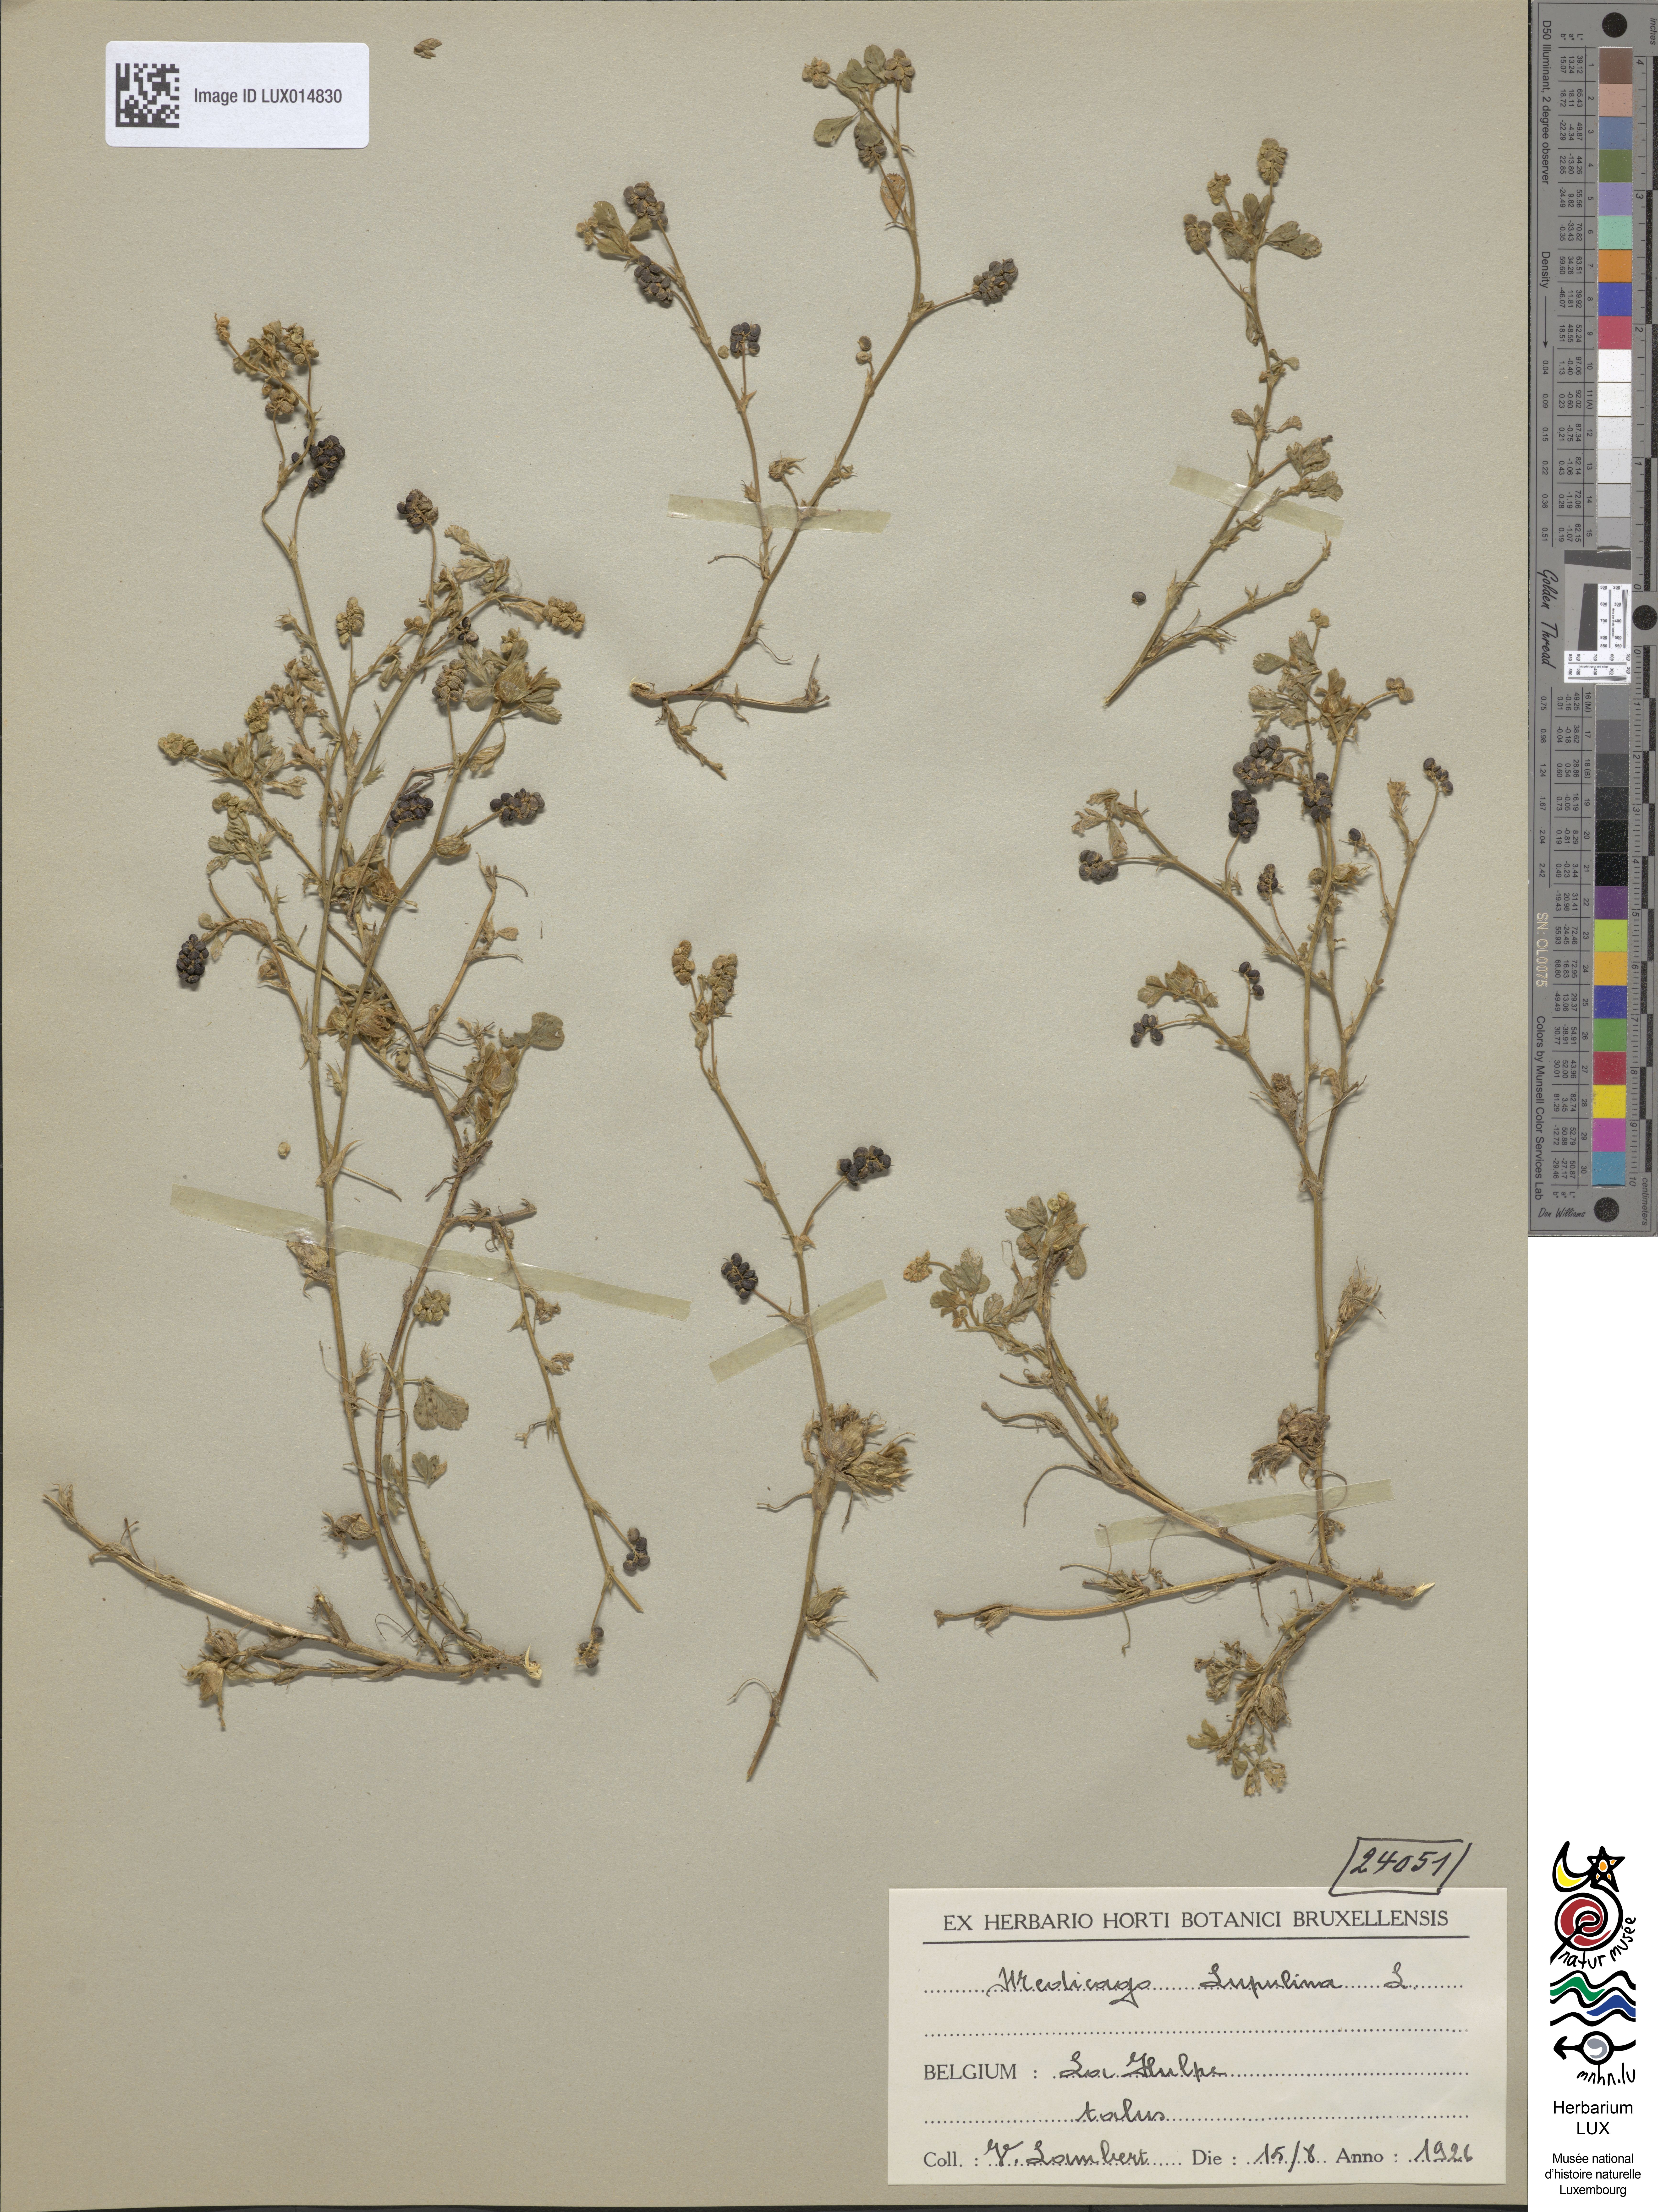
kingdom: Plantae
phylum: Tracheophyta
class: Magnoliopsida
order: Fabales
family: Fabaceae
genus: Medicago
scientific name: Medicago lupulina
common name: Black medick
